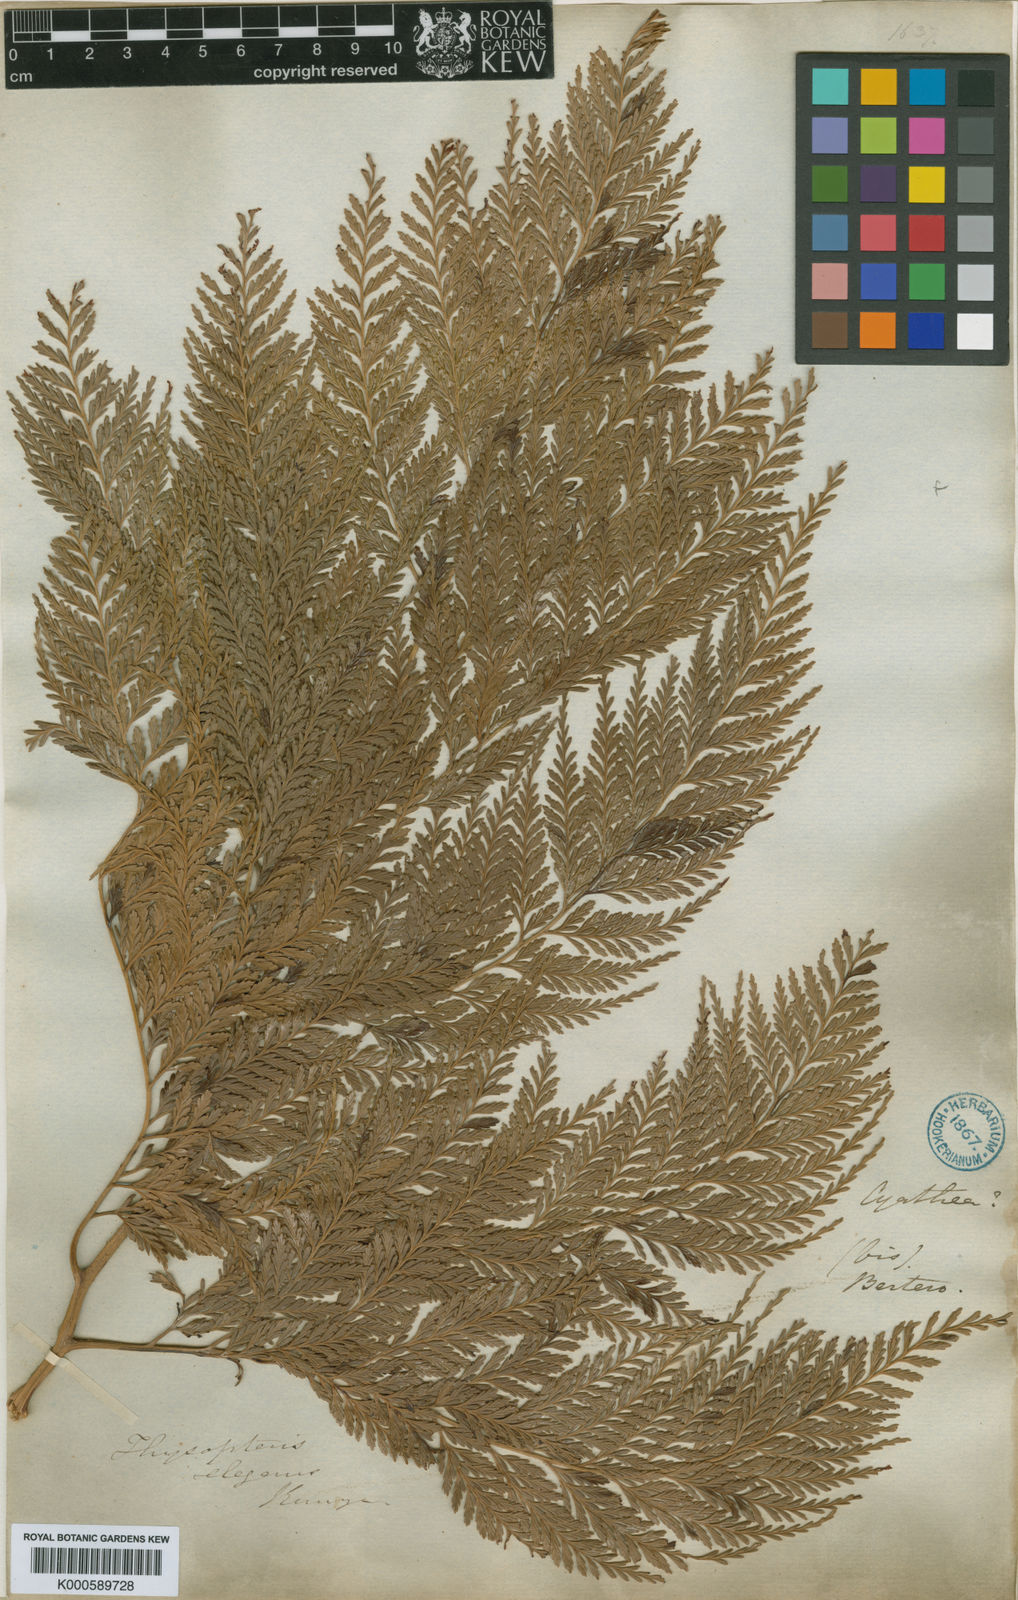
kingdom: Plantae
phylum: Tracheophyta
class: Polypodiopsida
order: Cyatheales
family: Thyrsopteridaceae
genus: Thyrsopteris
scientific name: Thyrsopteris elegans
